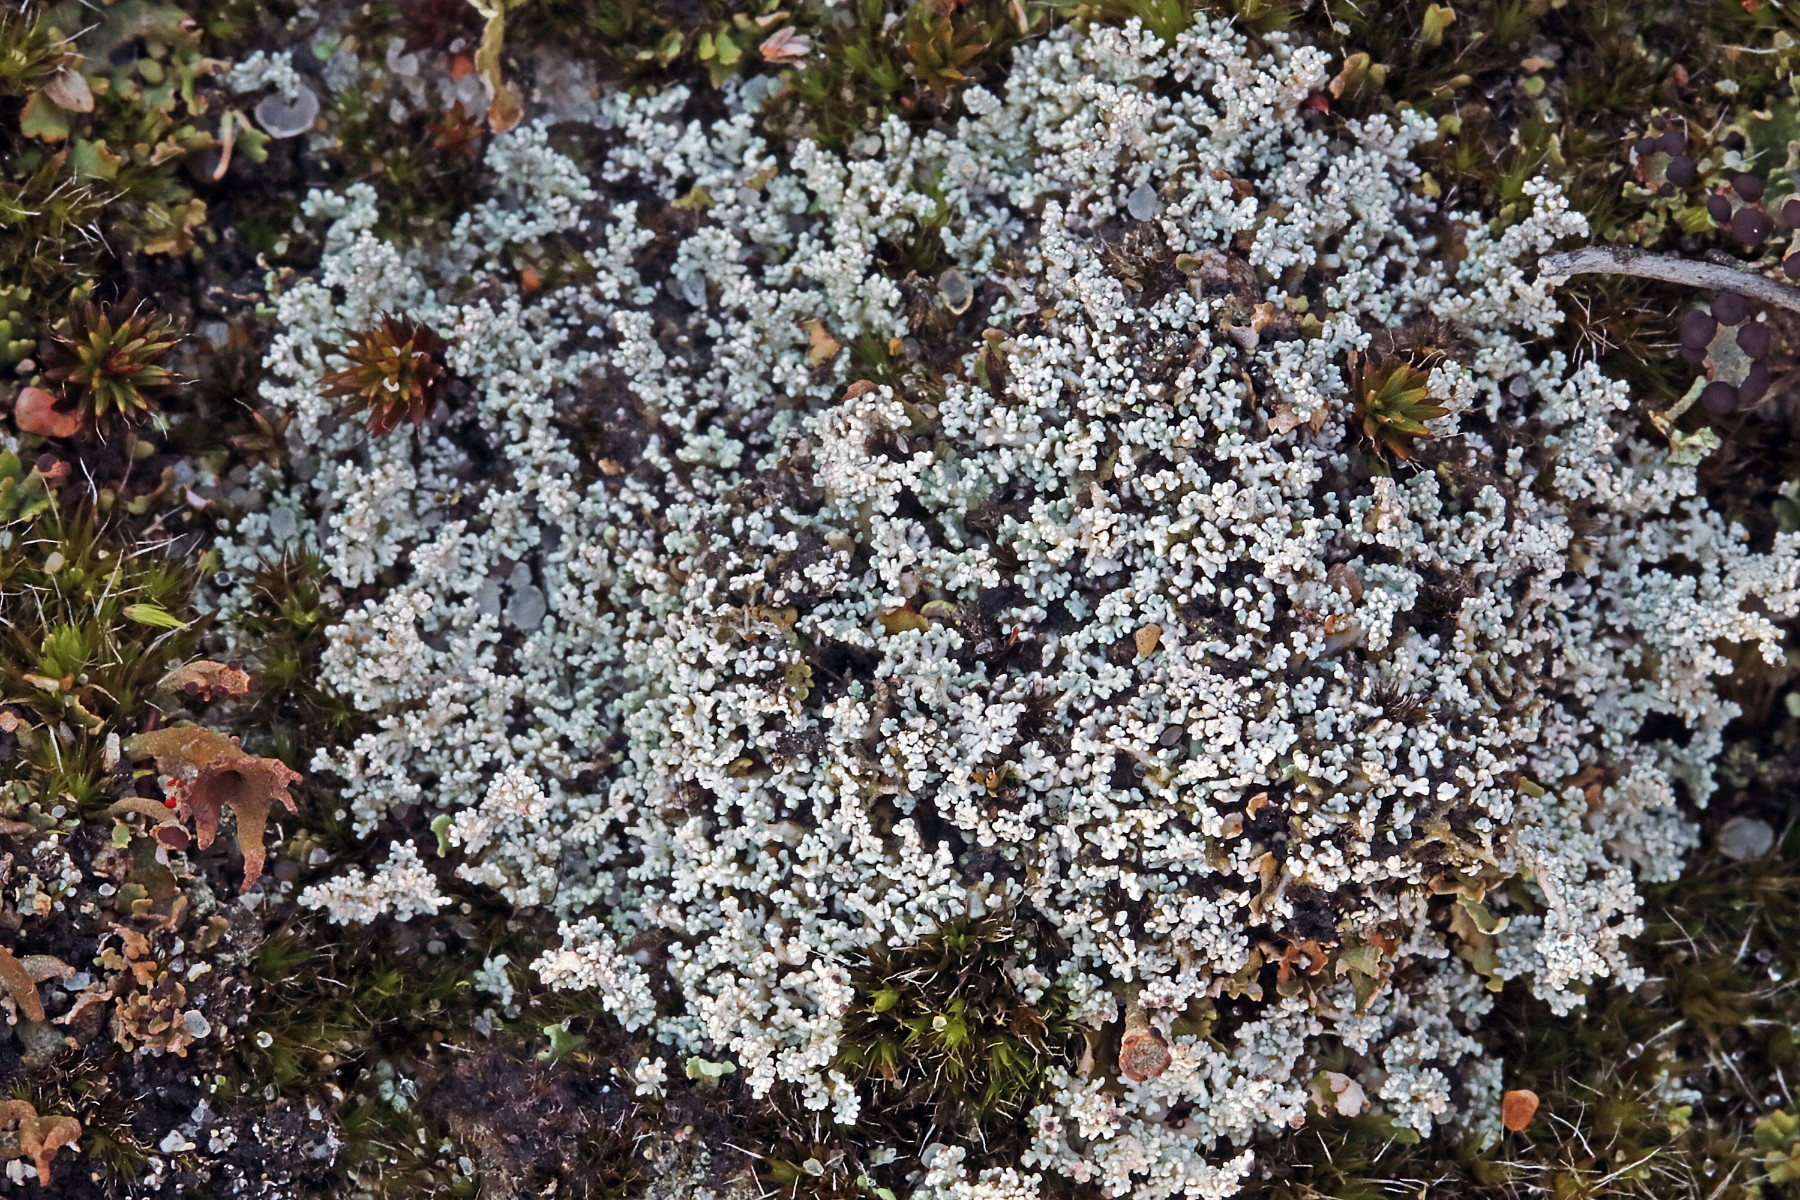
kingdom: Fungi
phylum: Ascomycota
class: Lecanoromycetes
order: Lecanorales
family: Stereocaulaceae
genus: Stereocaulon
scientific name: Stereocaulon condensatum
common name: lav korallav
